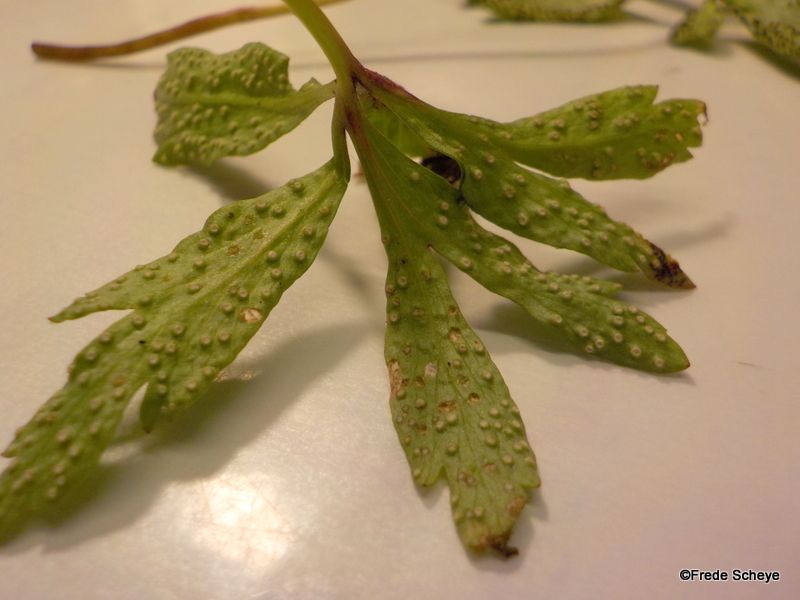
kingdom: Fungi
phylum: Basidiomycota
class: Pucciniomycetes
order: Pucciniales
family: Ochropsoraceae
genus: Ochropsora
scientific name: Ochropsora ariae
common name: anemone-okkerpletrust
